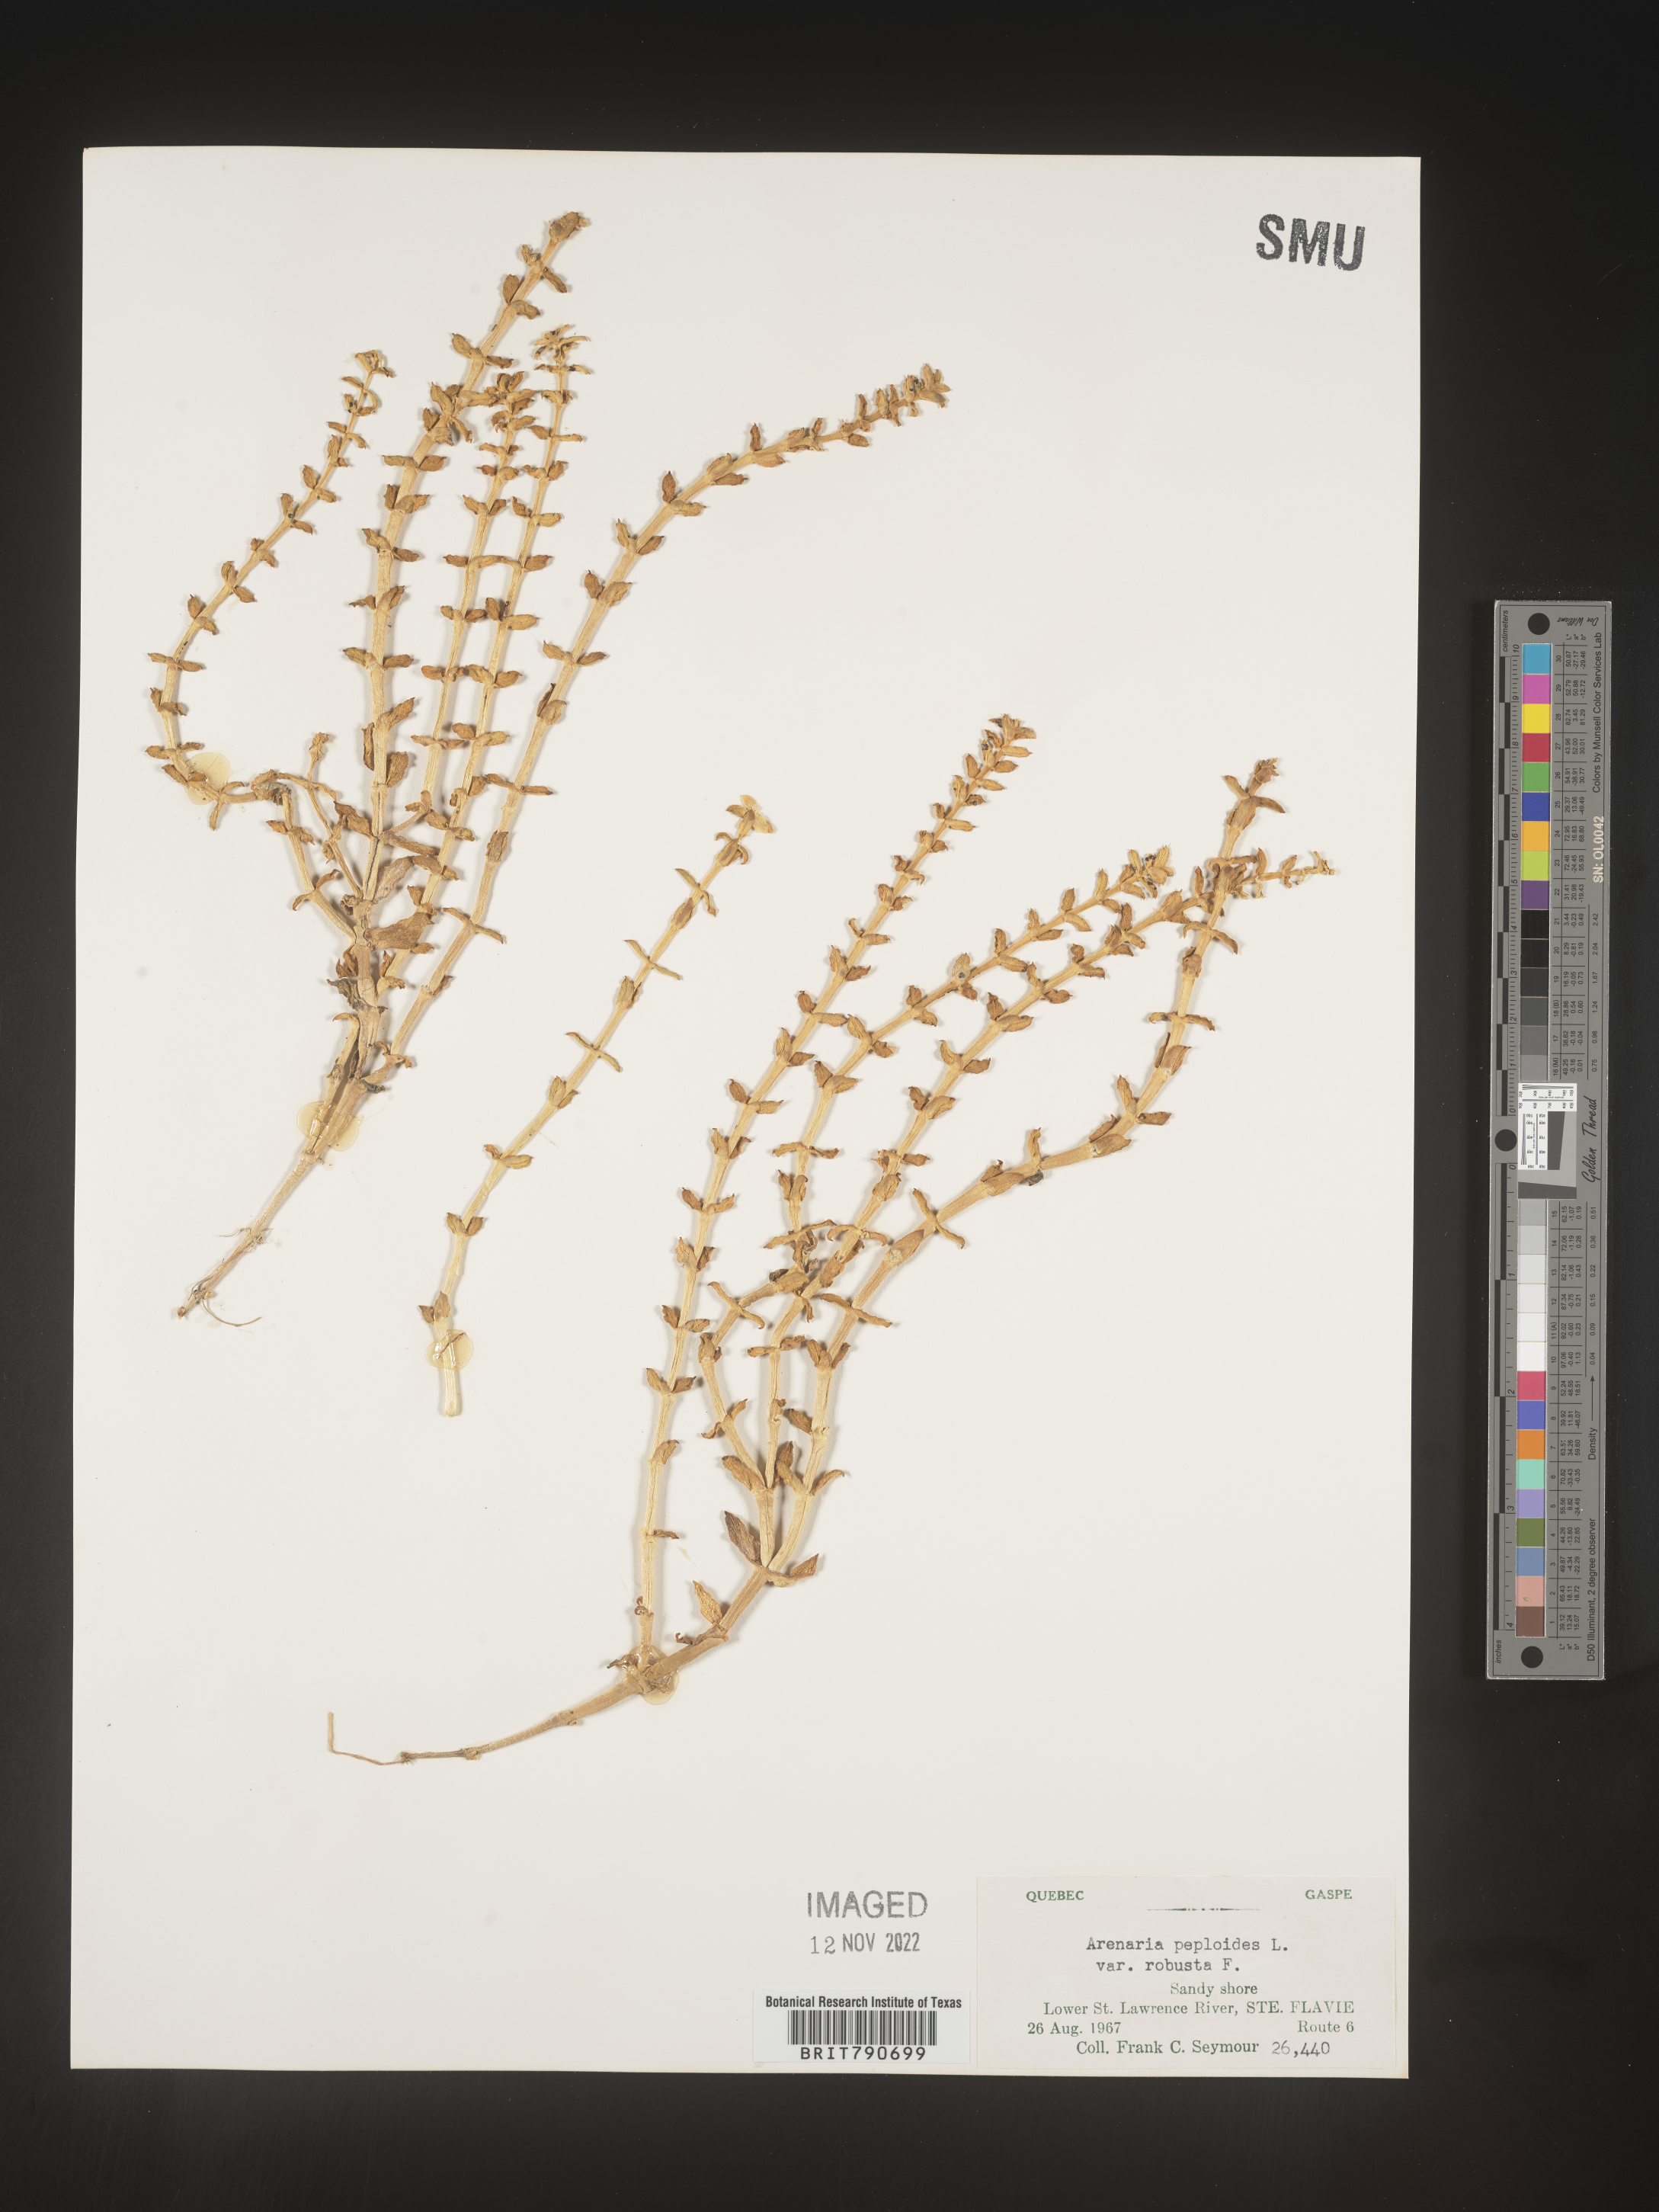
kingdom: Plantae
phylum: Tracheophyta
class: Magnoliopsida
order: Malvales
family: Malvaceae
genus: Clappertonia
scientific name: Clappertonia
